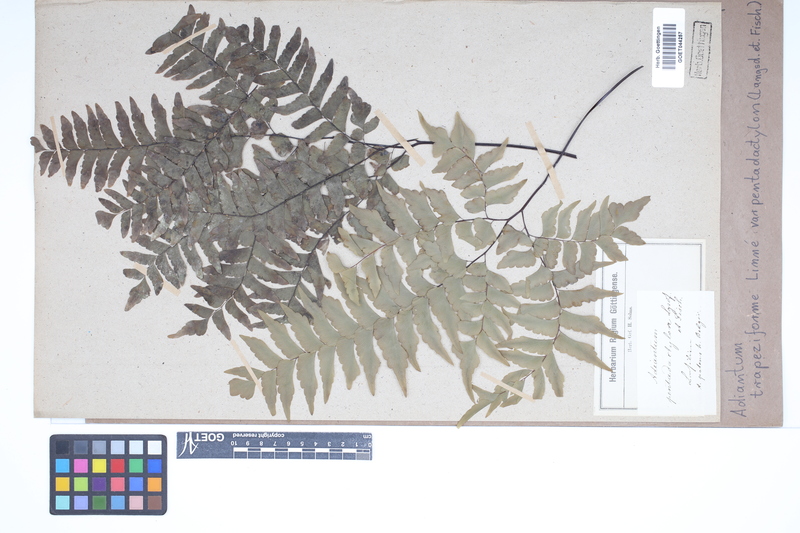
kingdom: Plantae
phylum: Tracheophyta
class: Polypodiopsida
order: Polypodiales
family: Pteridaceae
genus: Adiantum
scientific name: Adiantum pentadactylon
